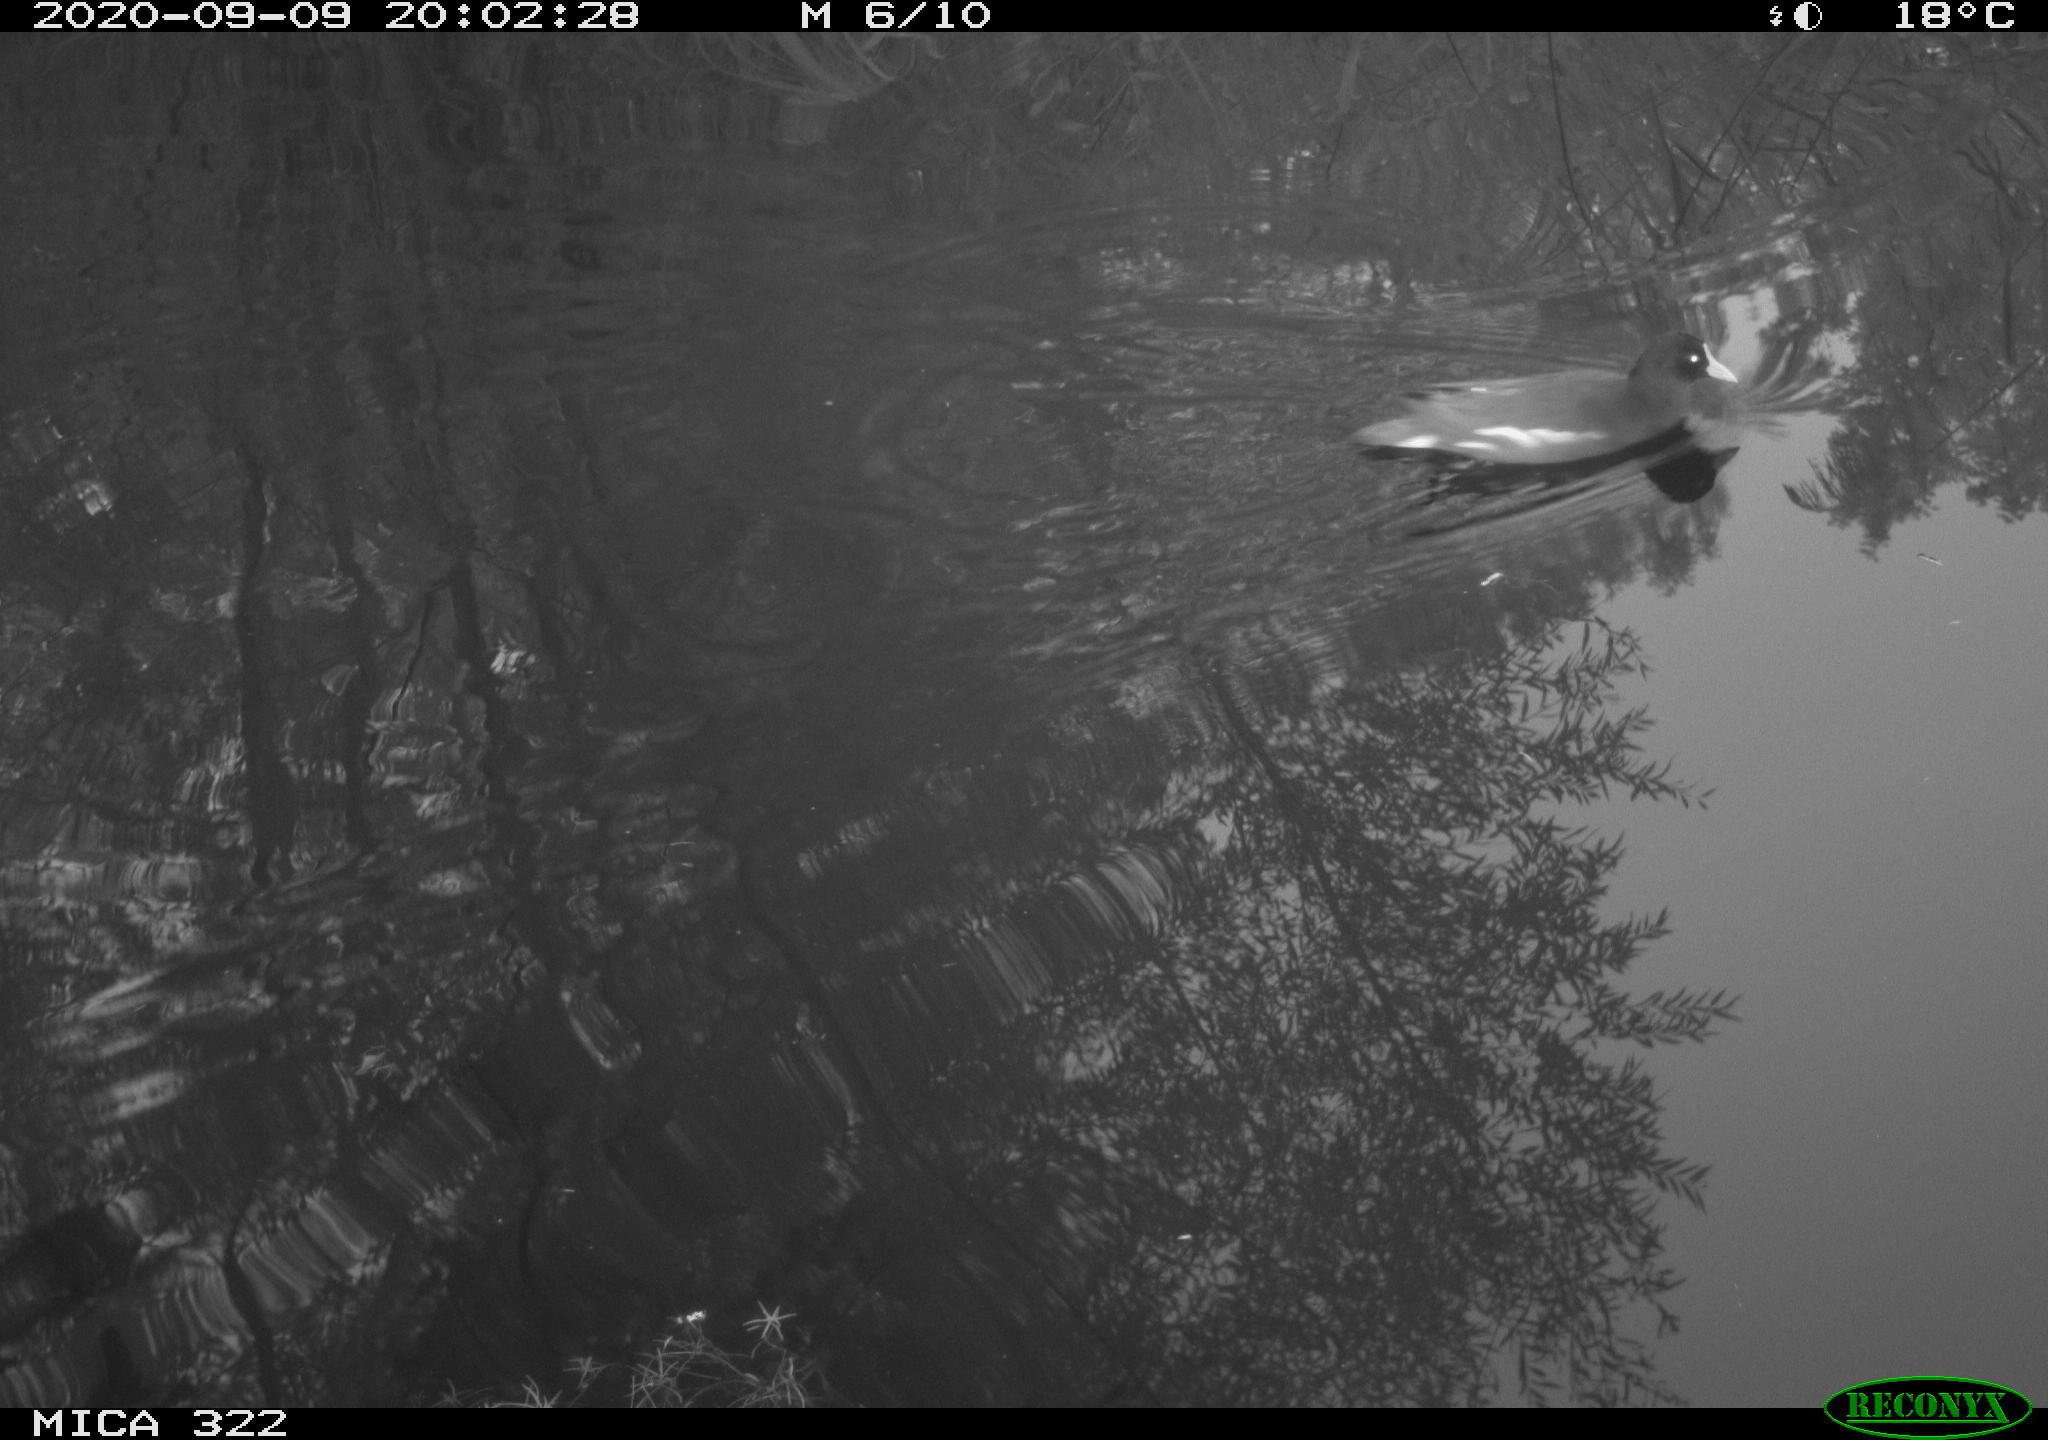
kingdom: Animalia
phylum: Chordata
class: Aves
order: Gruiformes
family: Rallidae
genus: Gallinula
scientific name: Gallinula chloropus
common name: Common moorhen
